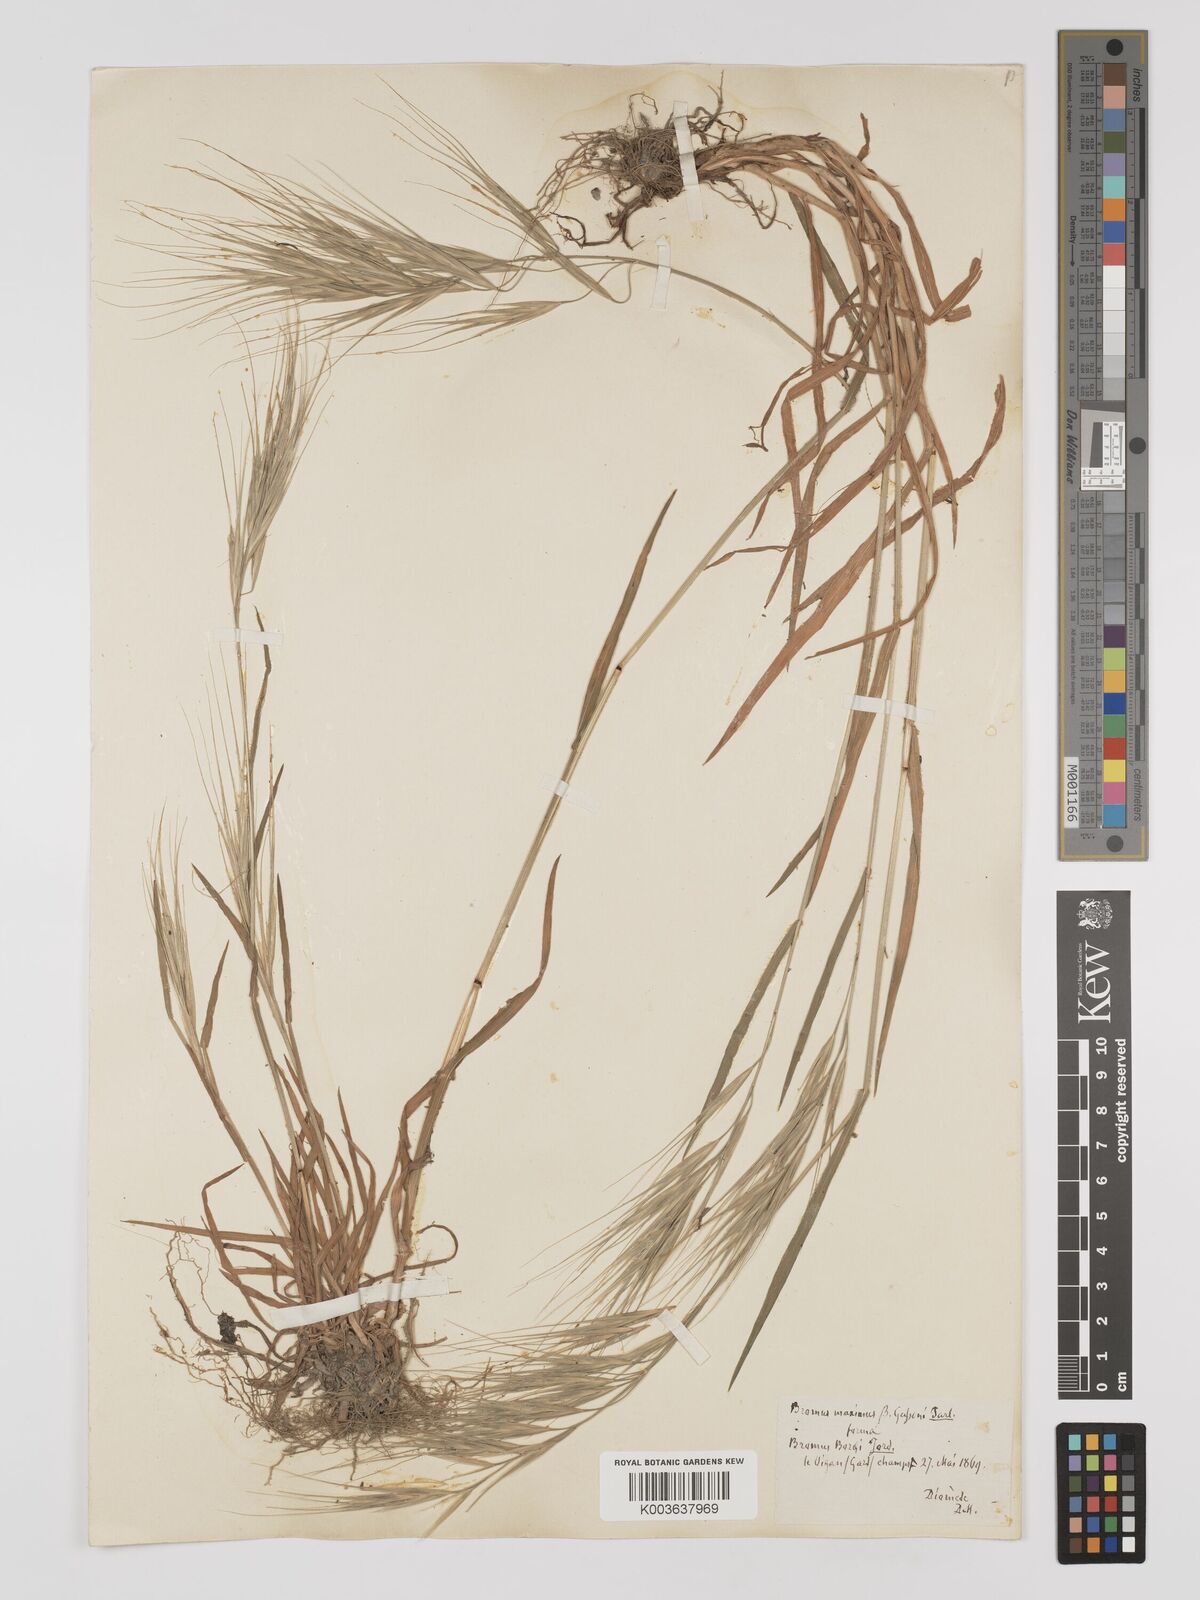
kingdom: Plantae
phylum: Tracheophyta
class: Liliopsida
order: Poales
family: Poaceae
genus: Bromus
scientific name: Bromus
